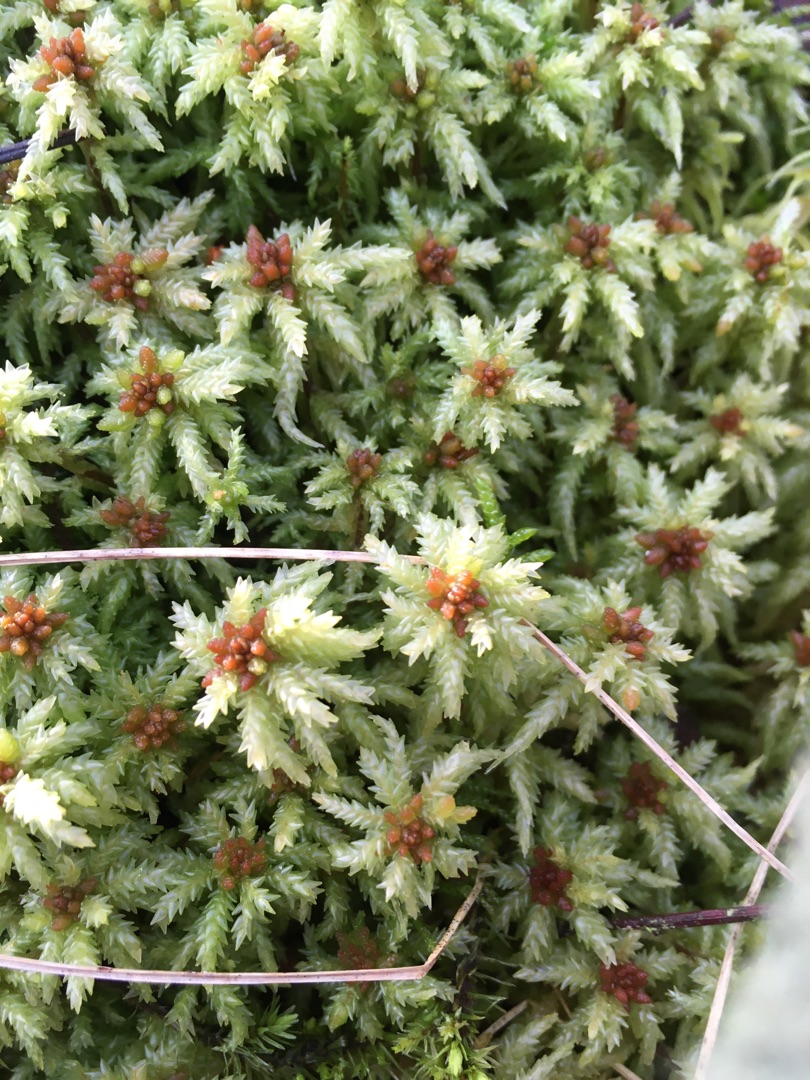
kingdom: Plantae
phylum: Bryophyta
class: Sphagnopsida
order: Sphagnales
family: Sphagnaceae
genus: Sphagnum
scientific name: Sphagnum palustre
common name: Almindelig tørvemos
